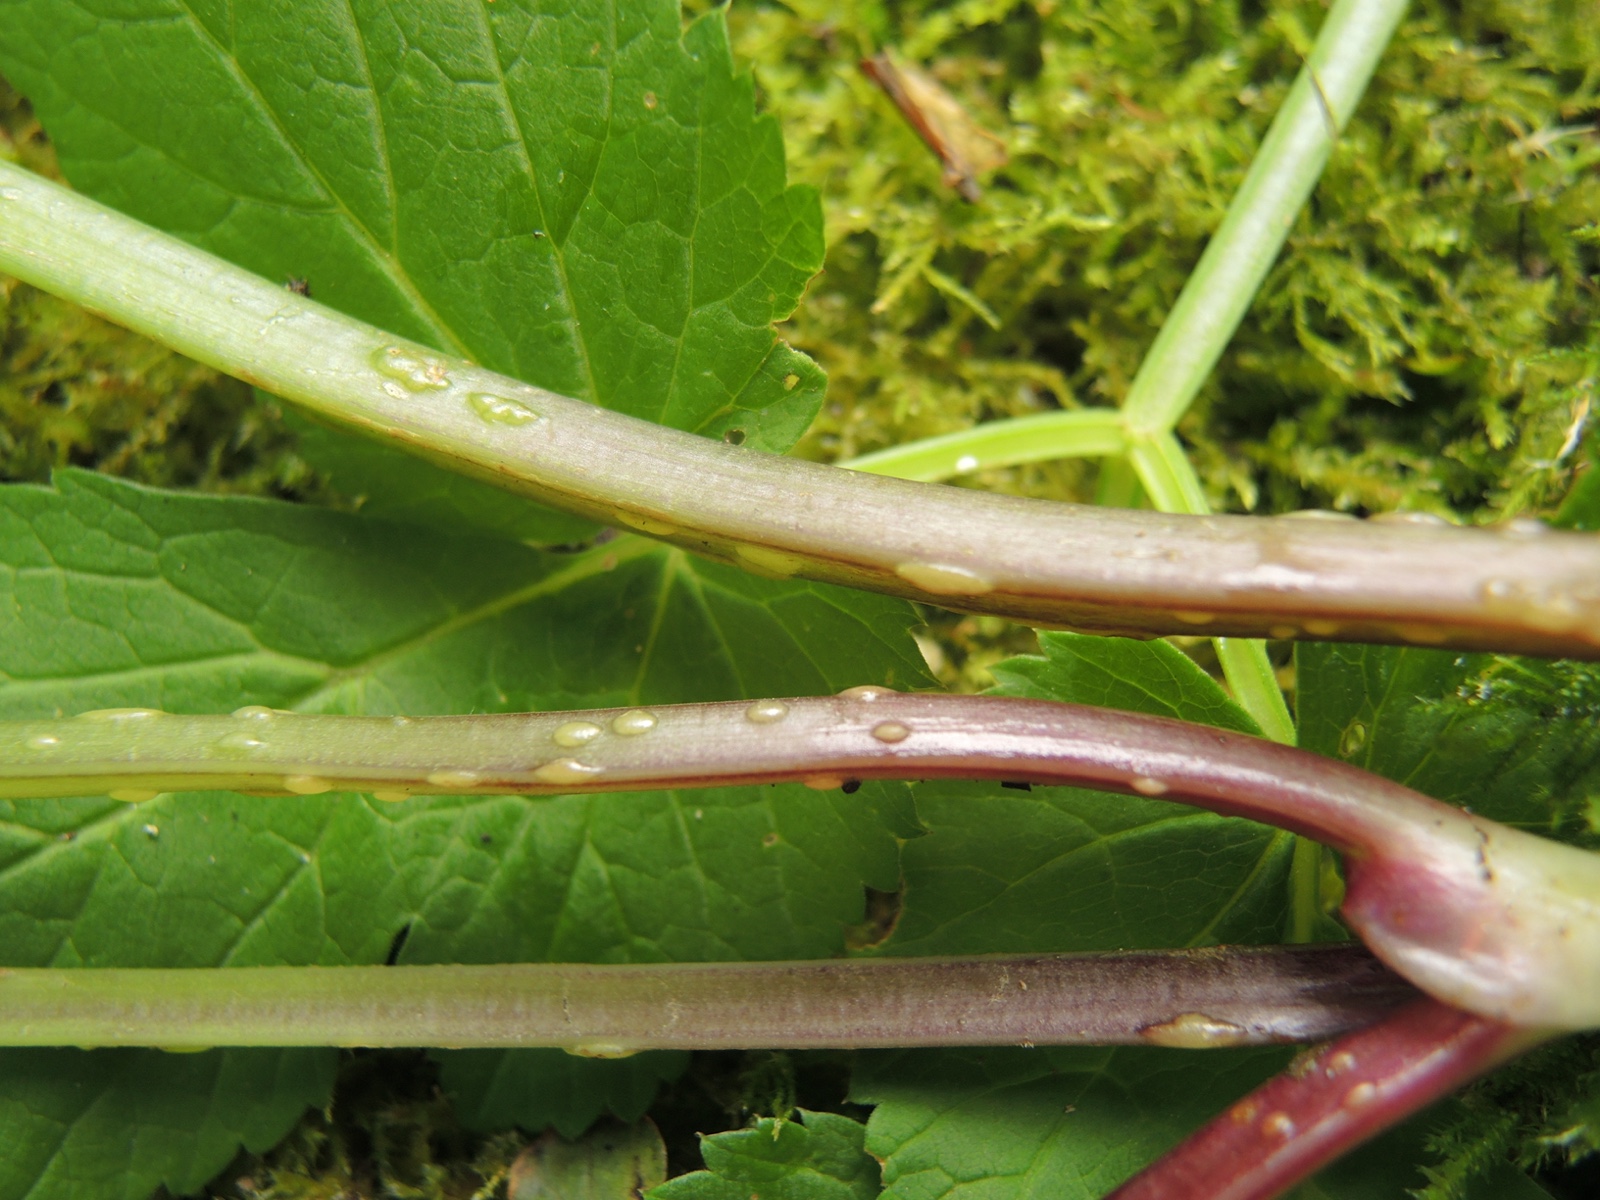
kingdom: Fungi
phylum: Ascomycota
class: Taphrinomycetes
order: Taphrinales
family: Taphrinaceae
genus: Protomyces
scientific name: Protomyces macrosporus
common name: skvalderkål-vablesæk
